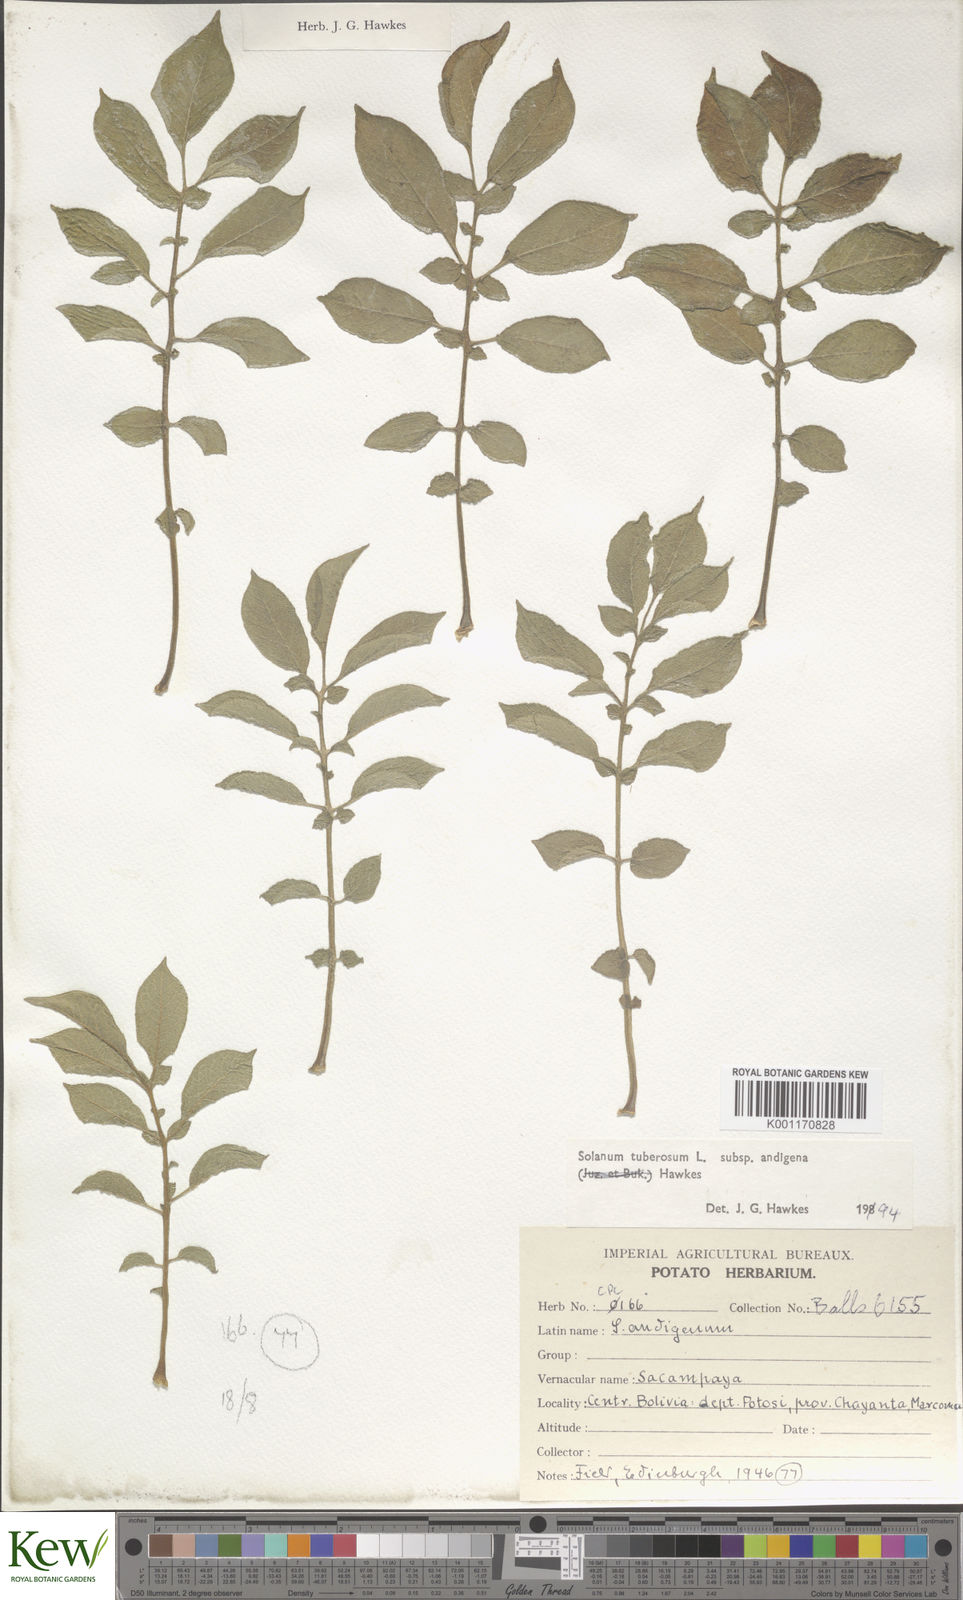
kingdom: Plantae
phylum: Tracheophyta
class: Magnoliopsida
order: Solanales
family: Solanaceae
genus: Solanum
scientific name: Solanum tuberosum
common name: Potato
